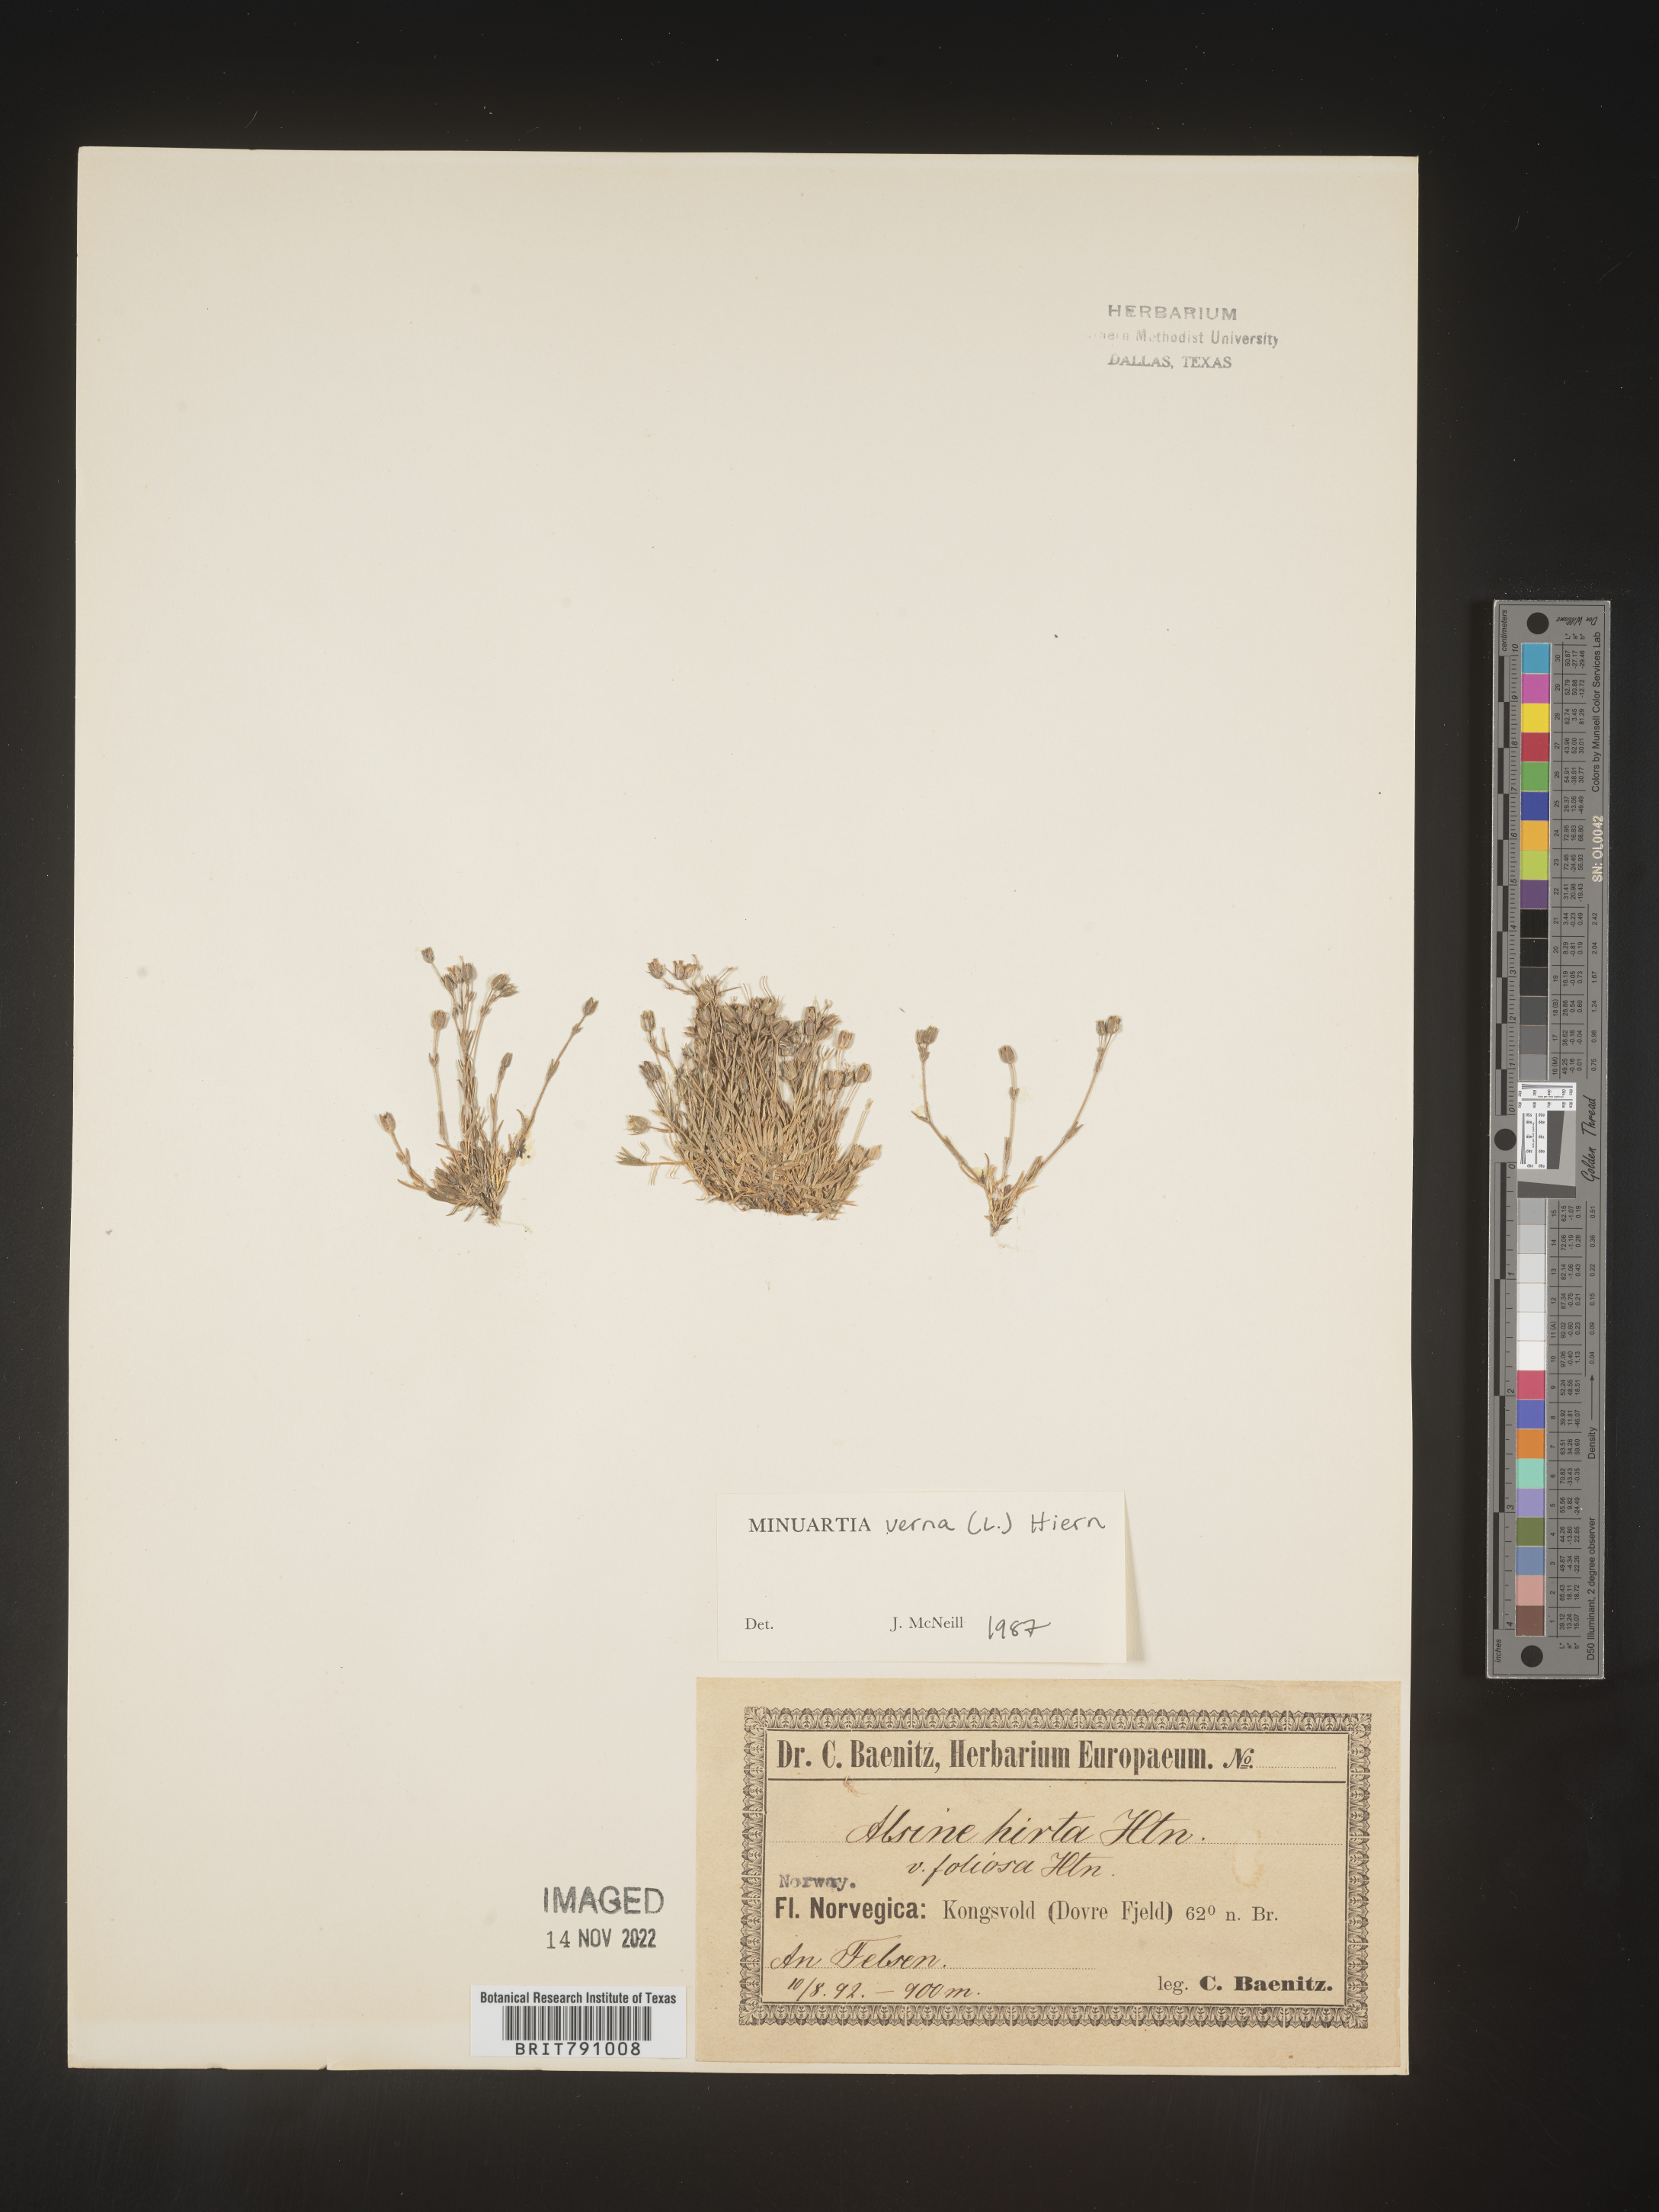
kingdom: Plantae
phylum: Tracheophyta
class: Magnoliopsida
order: Caryophyllales
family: Caryophyllaceae
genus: Minuartia
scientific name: Minuartia
